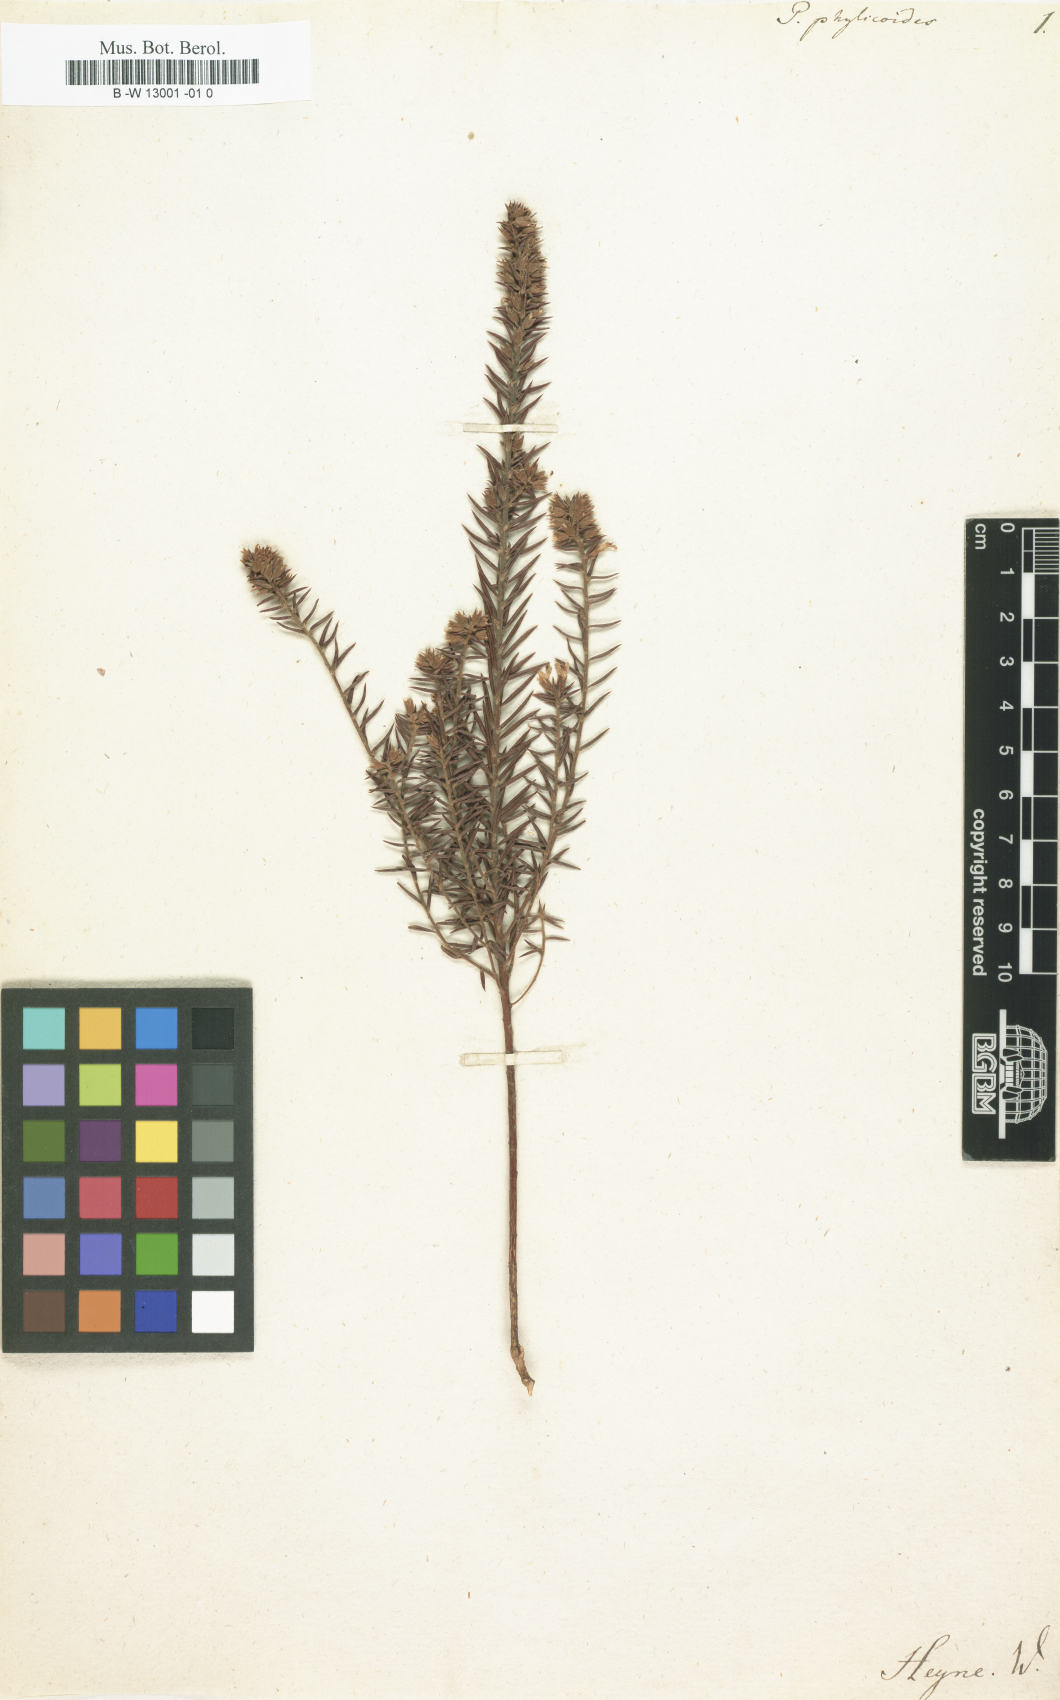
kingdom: Plantae
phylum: Tracheophyta
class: Magnoliopsida
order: Fabales
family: Polygalaceae
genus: Muraltia
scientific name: Muraltia aspalatha
